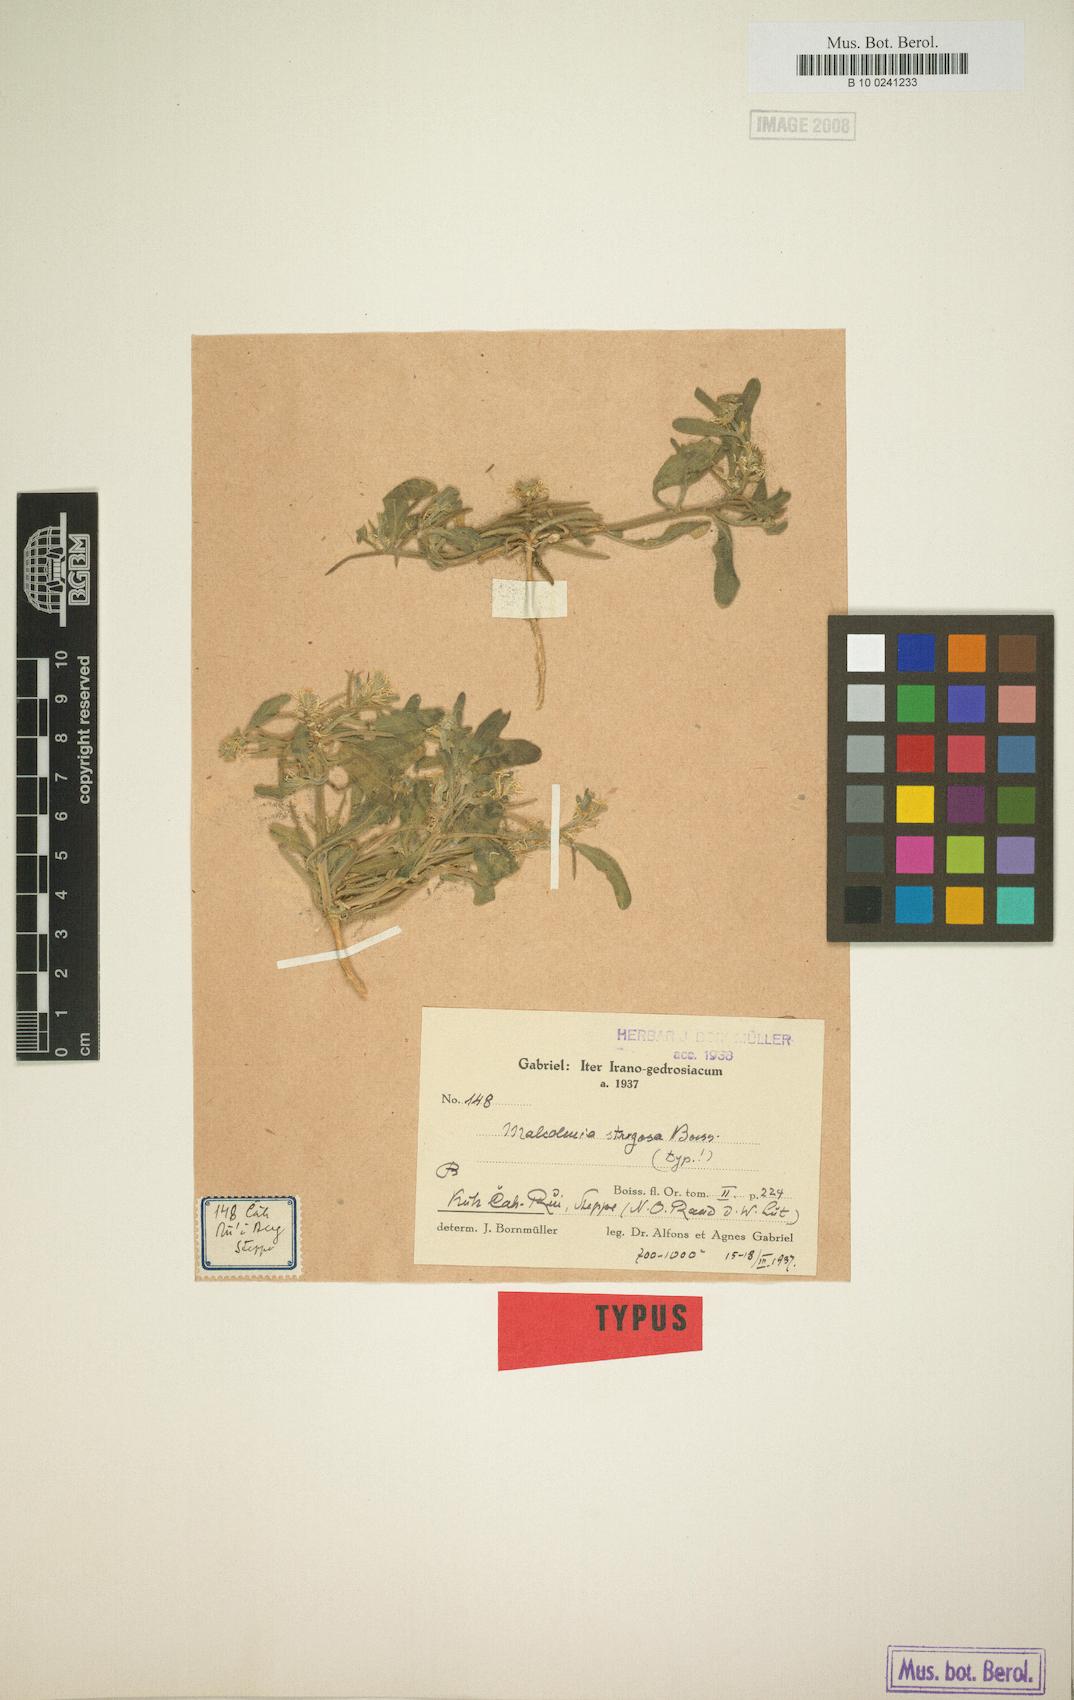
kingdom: Plantae
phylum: Tracheophyta
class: Magnoliopsida
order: Brassicales
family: Brassicaceae
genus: Strigosella
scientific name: Strigosella strigosa
